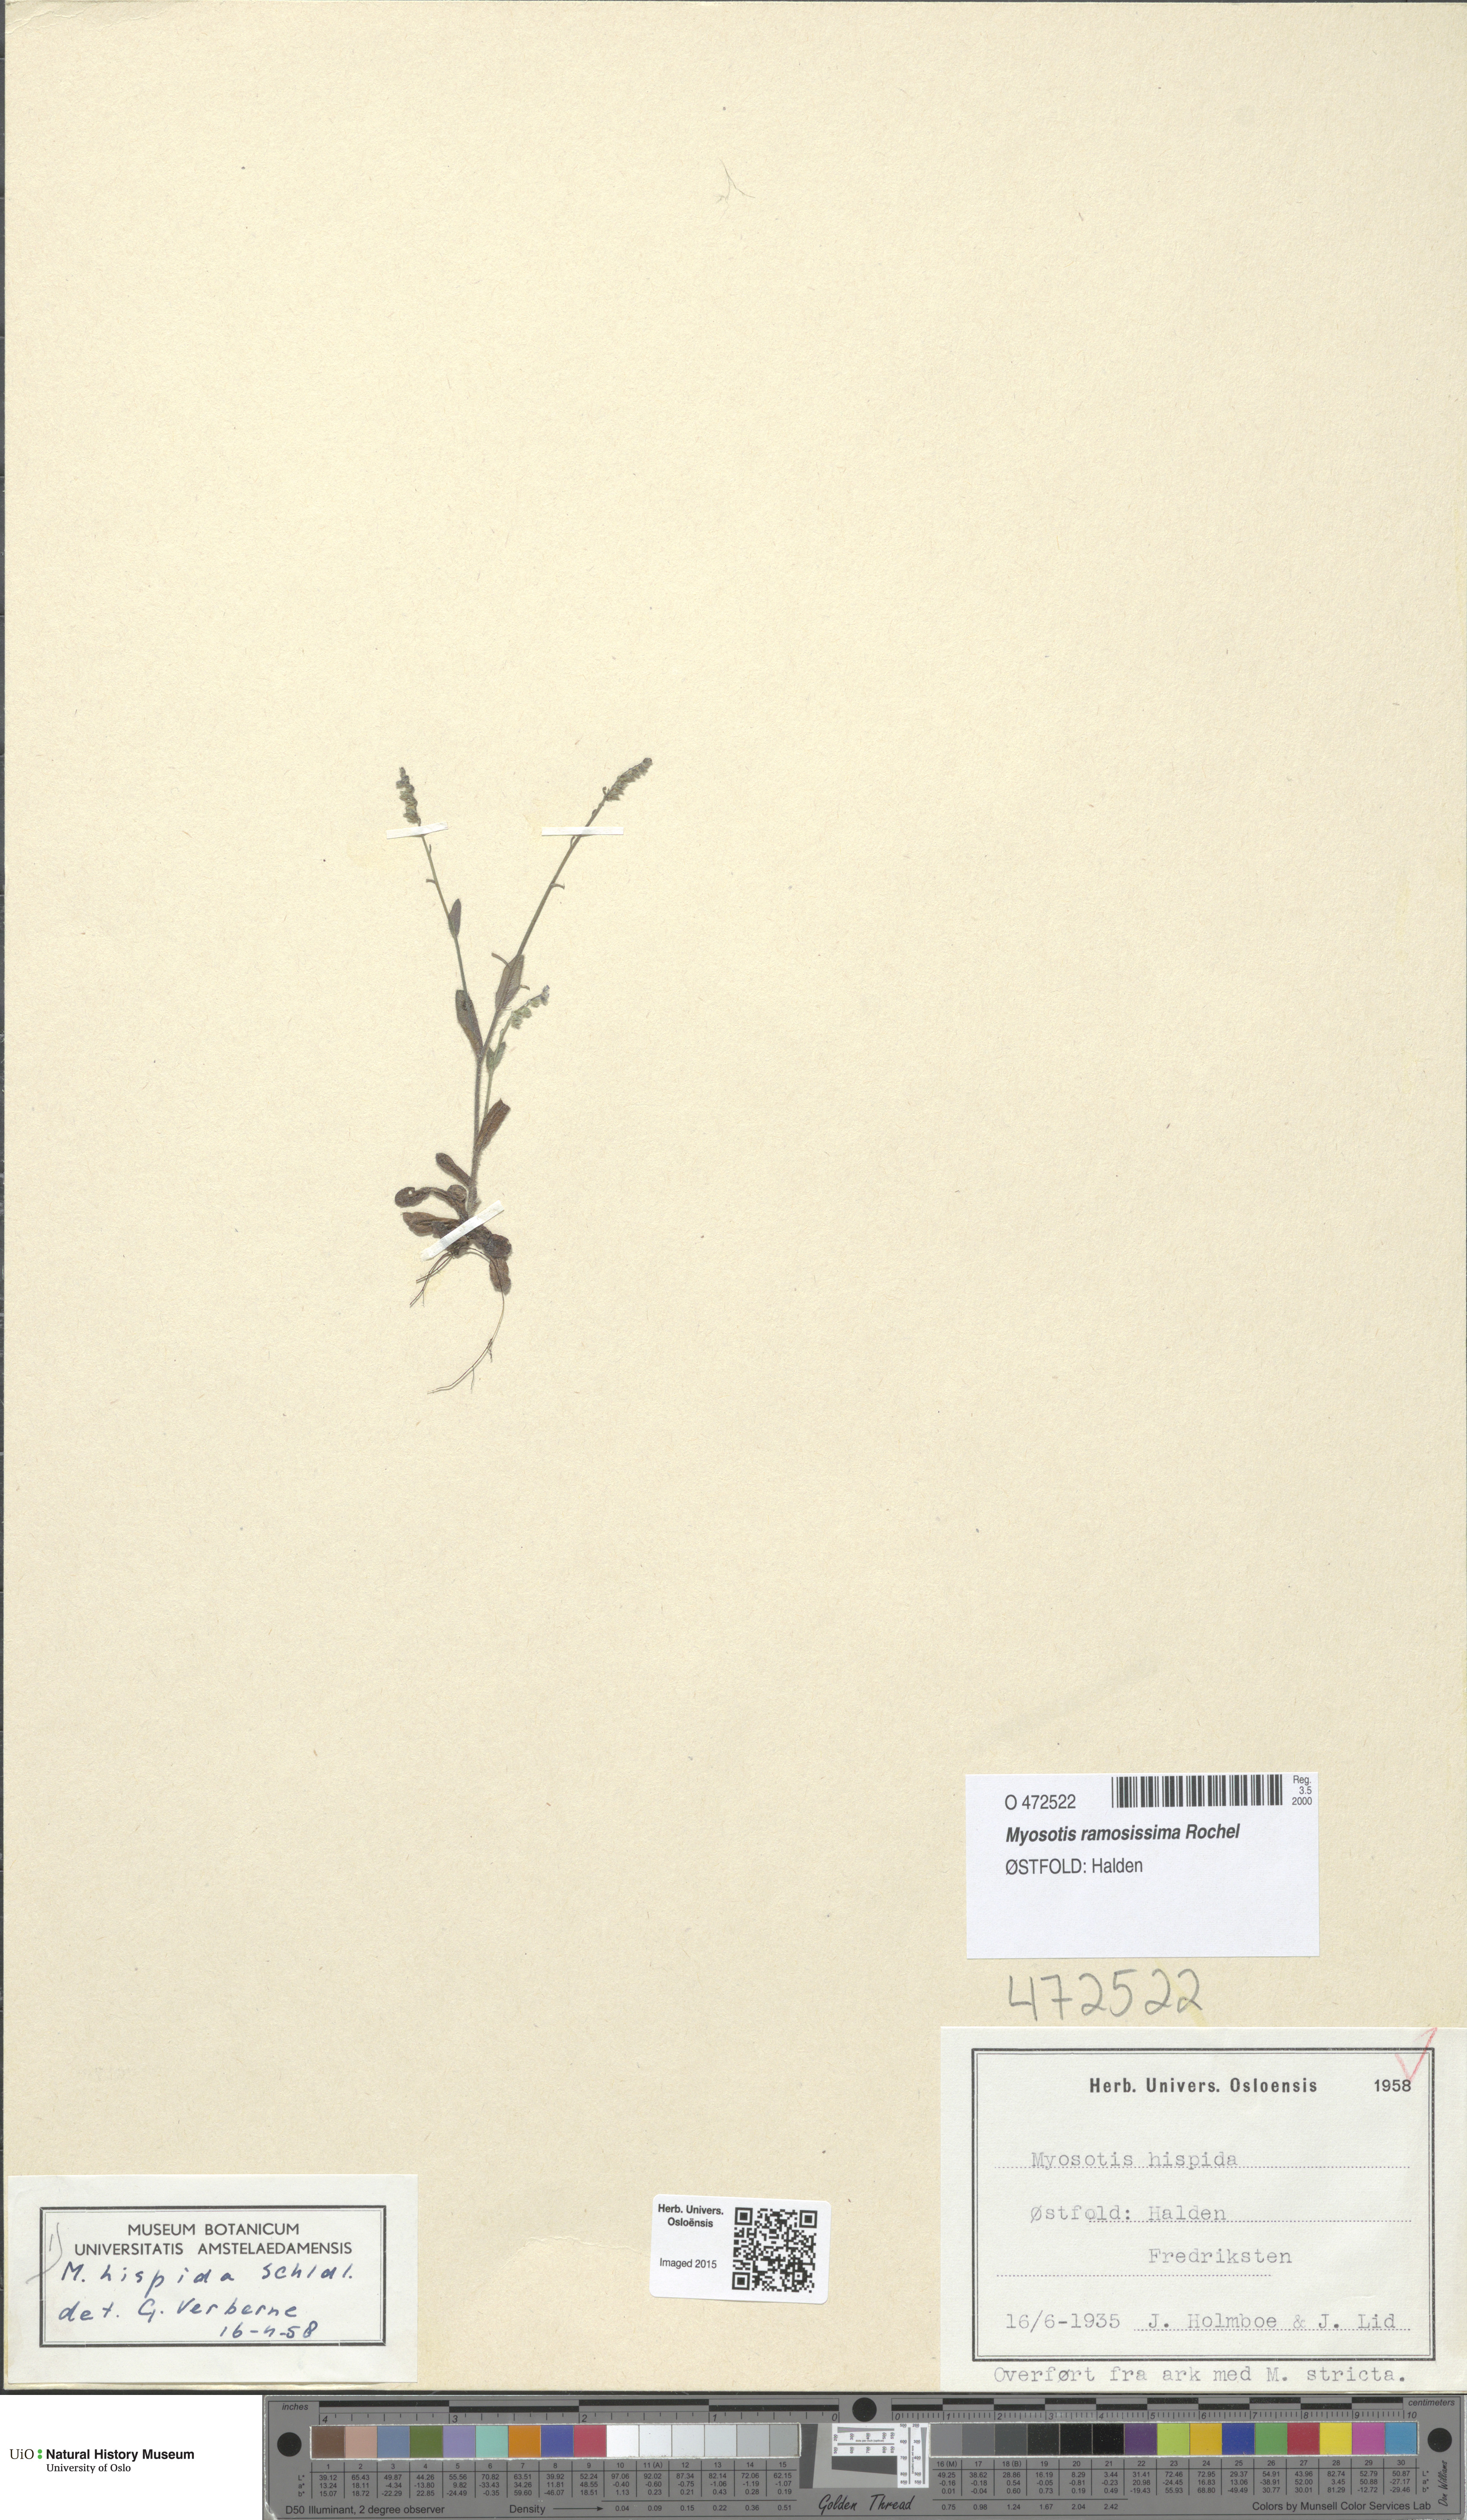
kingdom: Plantae
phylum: Tracheophyta
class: Magnoliopsida
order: Boraginales
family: Boraginaceae
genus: Myosotis
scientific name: Myosotis ramosissima
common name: Early forget-me-not
